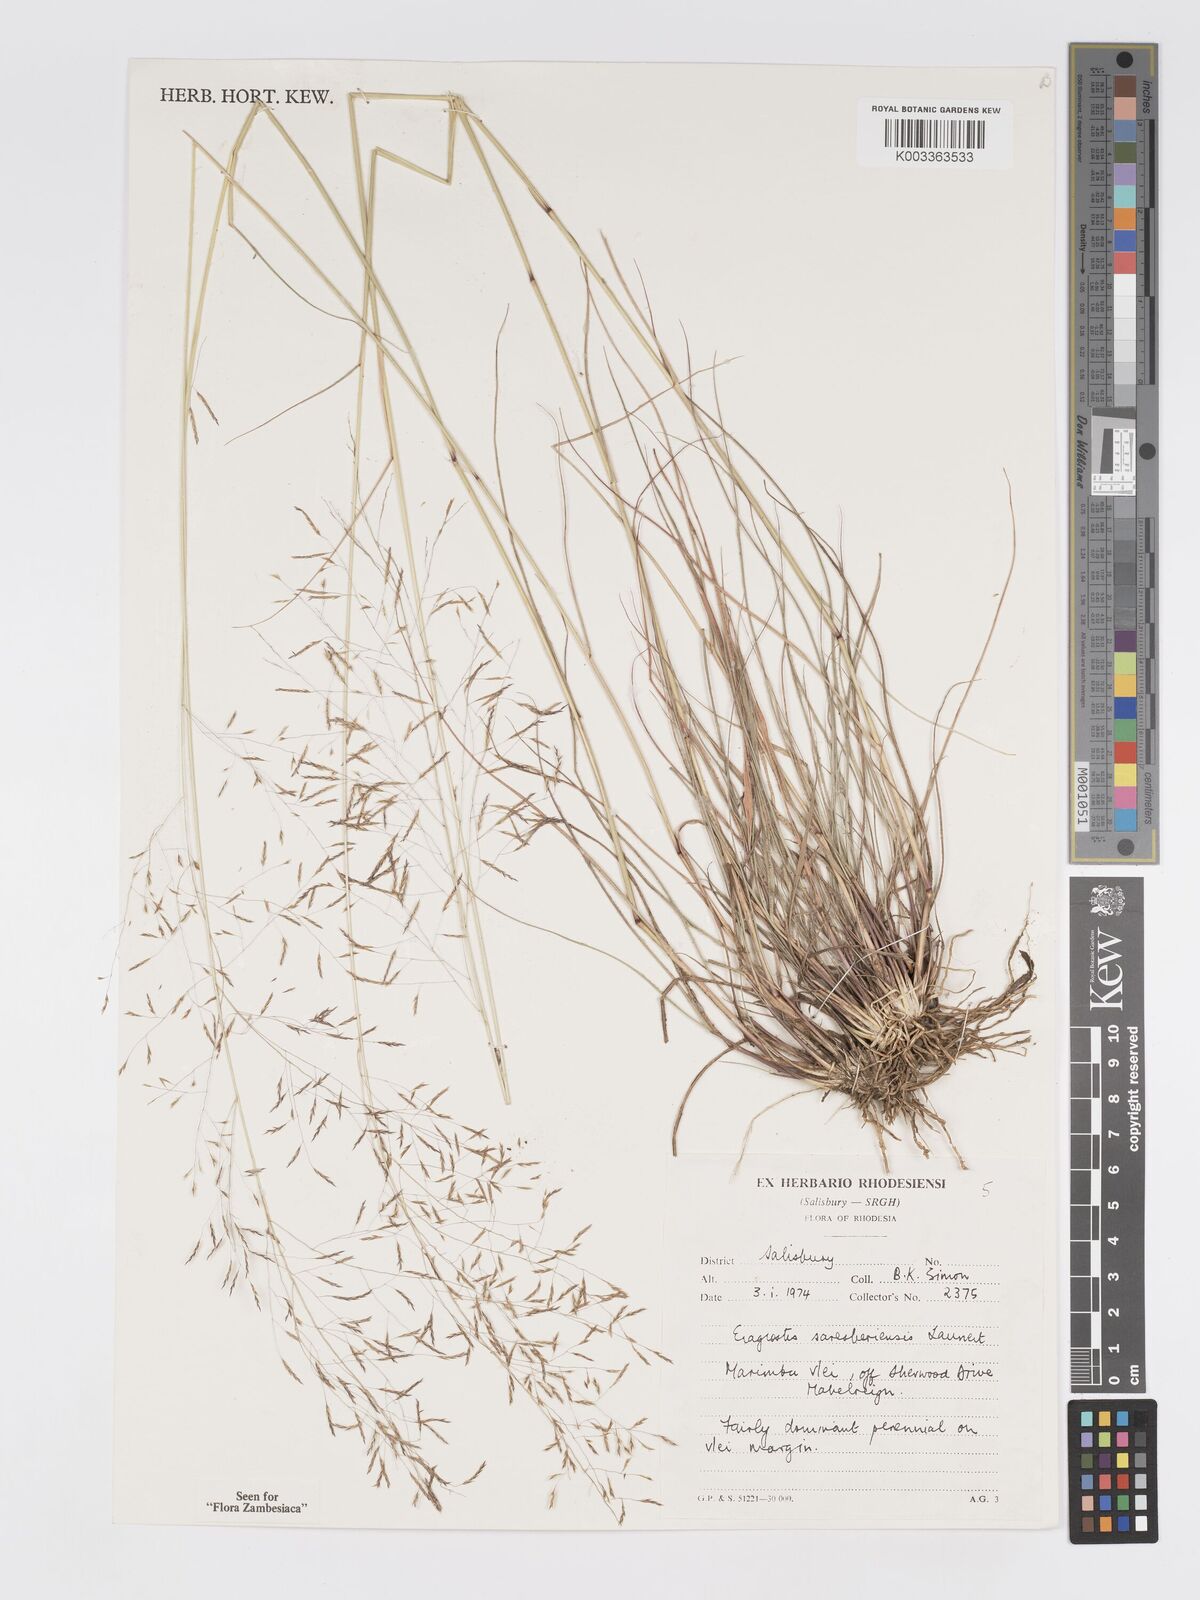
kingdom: Plantae
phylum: Tracheophyta
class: Liliopsida
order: Poales
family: Poaceae
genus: Eragrostis
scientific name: Eragrostis saresberiensis
